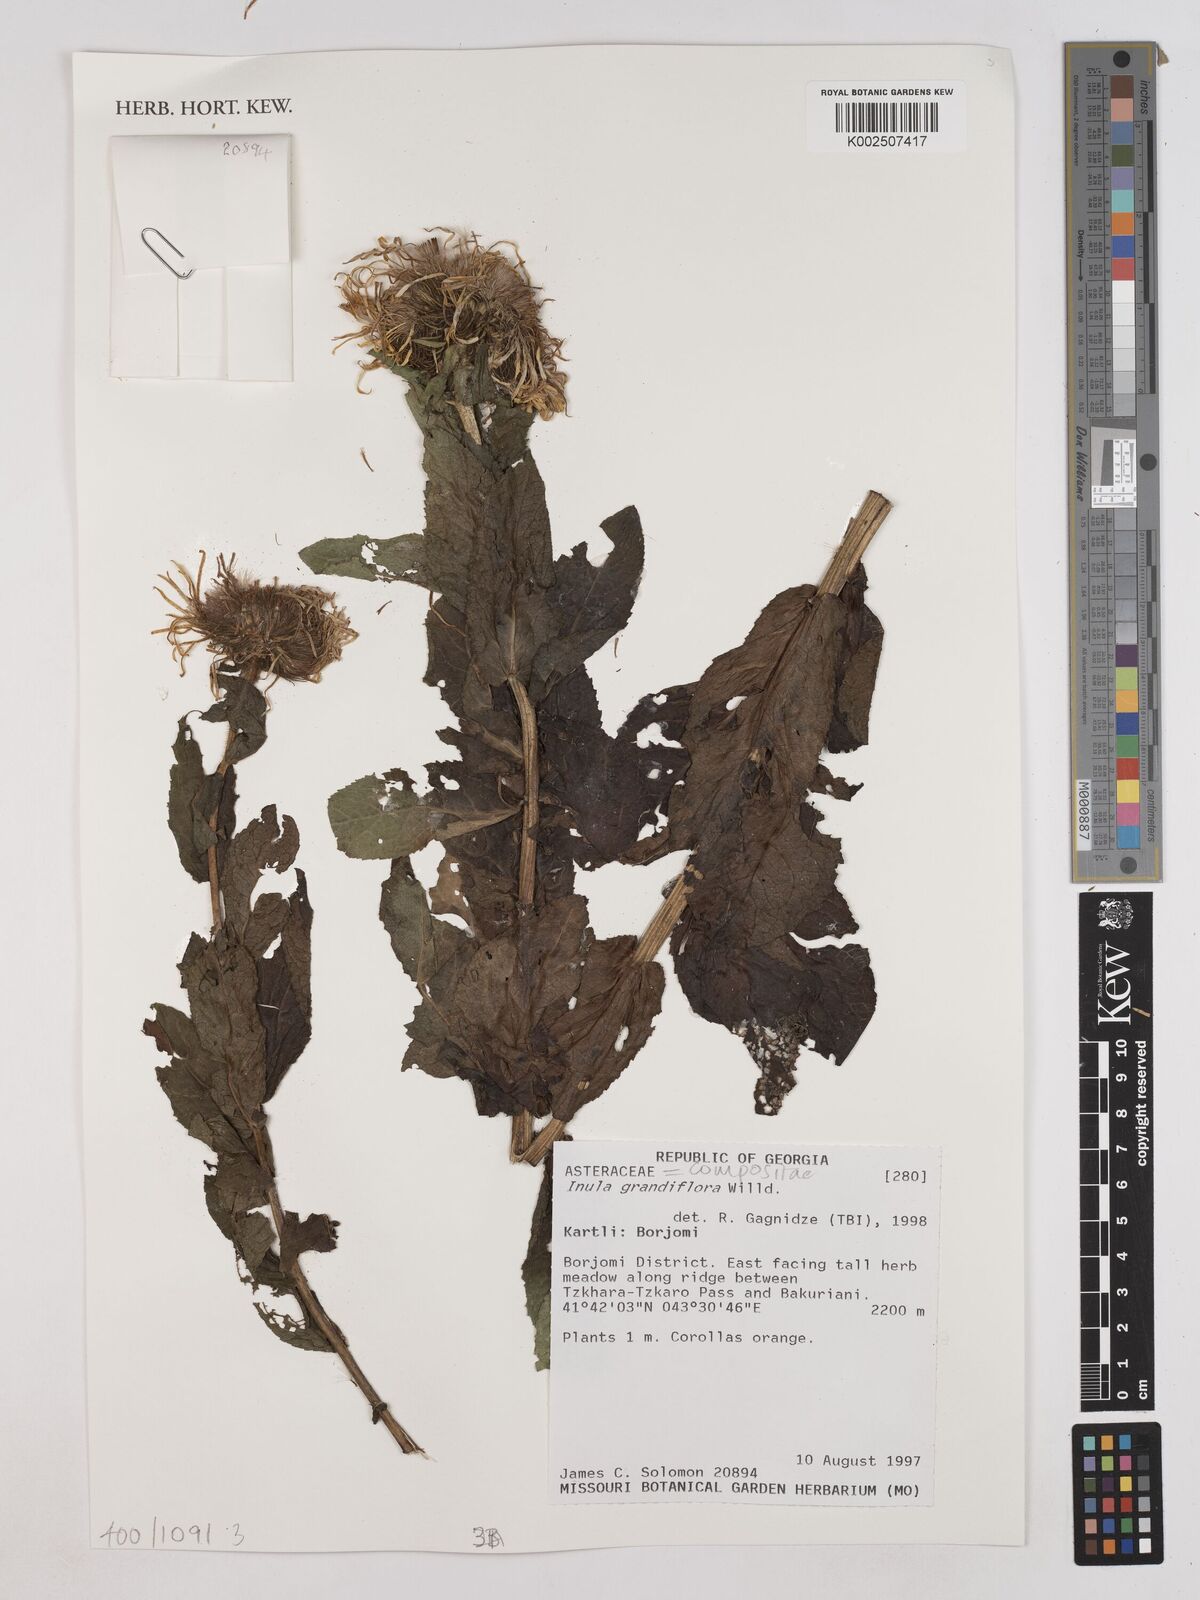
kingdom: Plantae
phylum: Tracheophyta
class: Magnoliopsida
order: Asterales
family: Asteraceae
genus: Inula
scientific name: Inula
